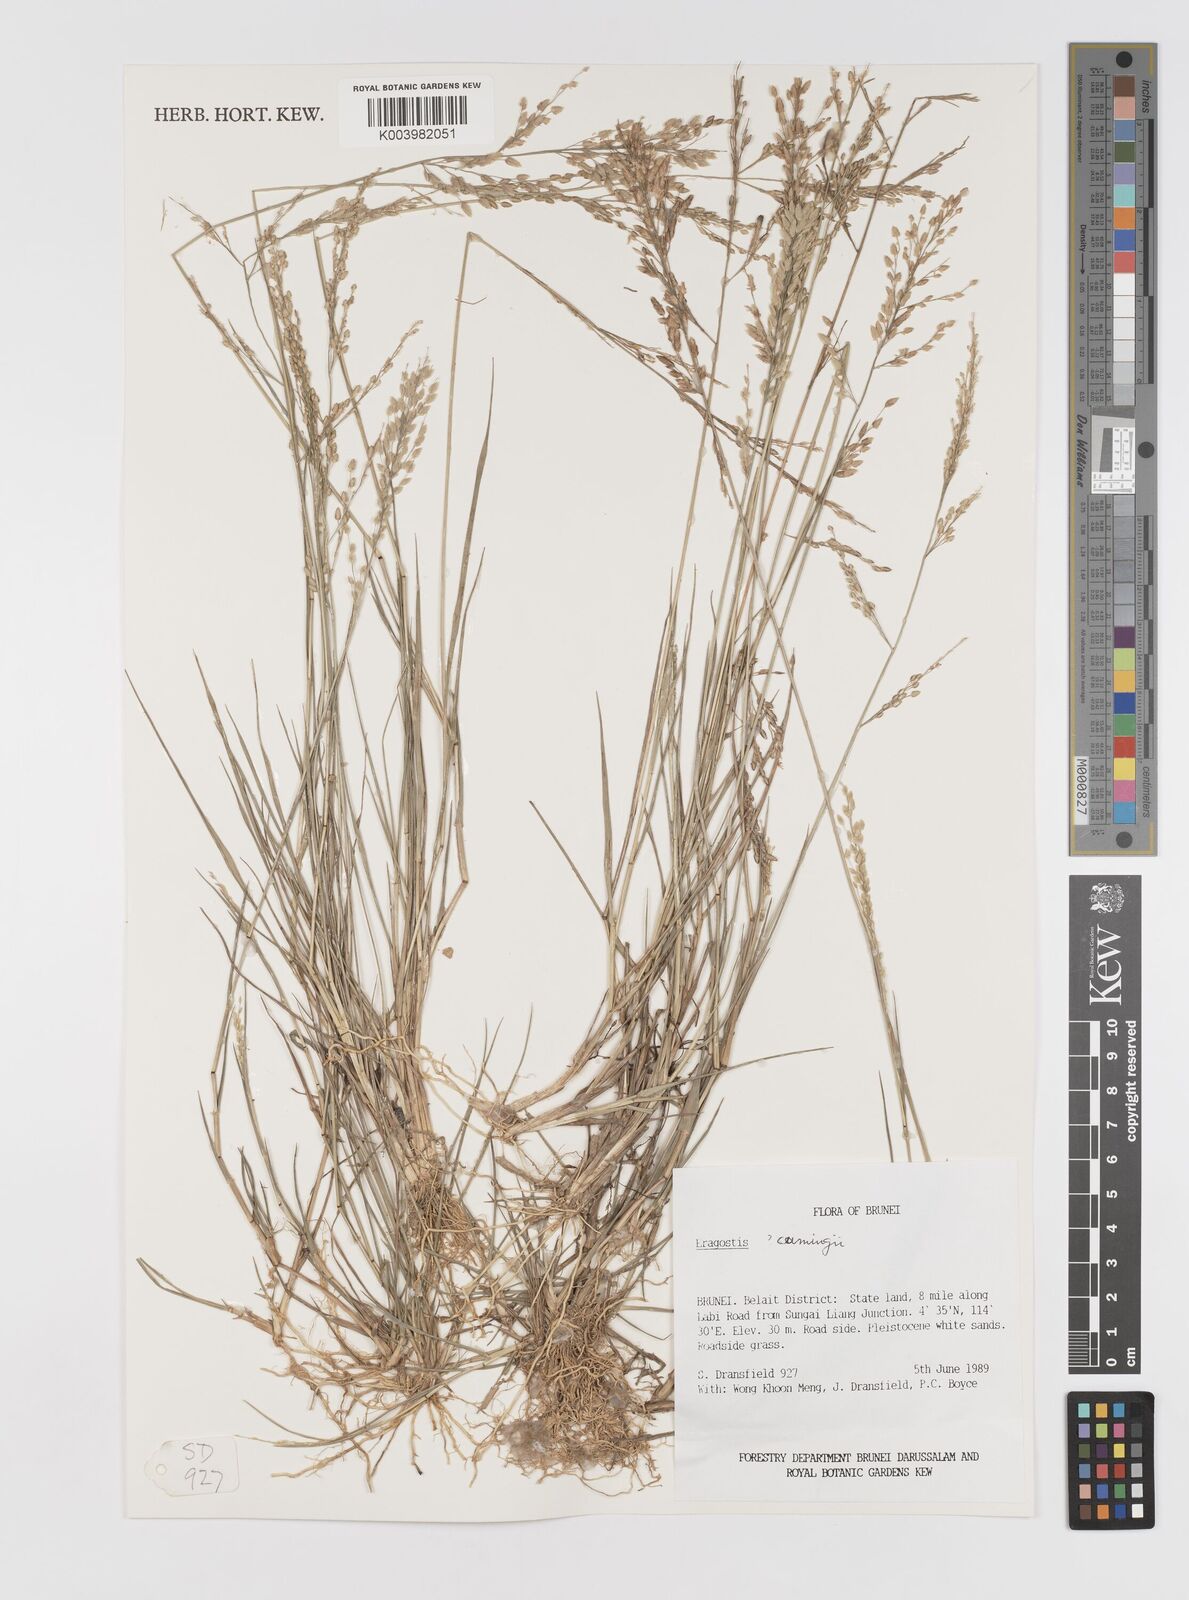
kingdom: Plantae
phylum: Tracheophyta
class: Liliopsida
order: Poales
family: Poaceae
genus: Eragrostis
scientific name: Eragrostis cumingii
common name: Cuming's lovegrass
